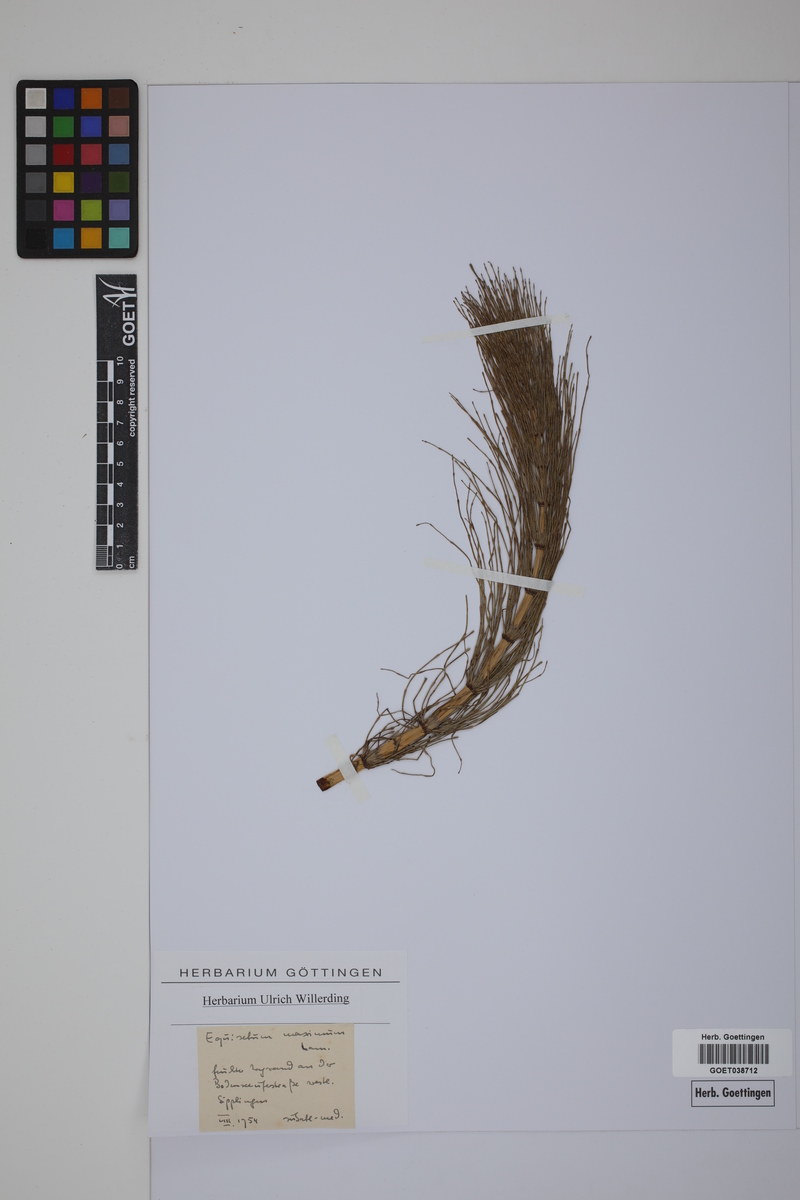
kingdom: Plantae
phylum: Tracheophyta
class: Polypodiopsida
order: Equisetales
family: Equisetaceae
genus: Equisetum
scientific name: Equisetum fluviatile
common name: Water horsetail
